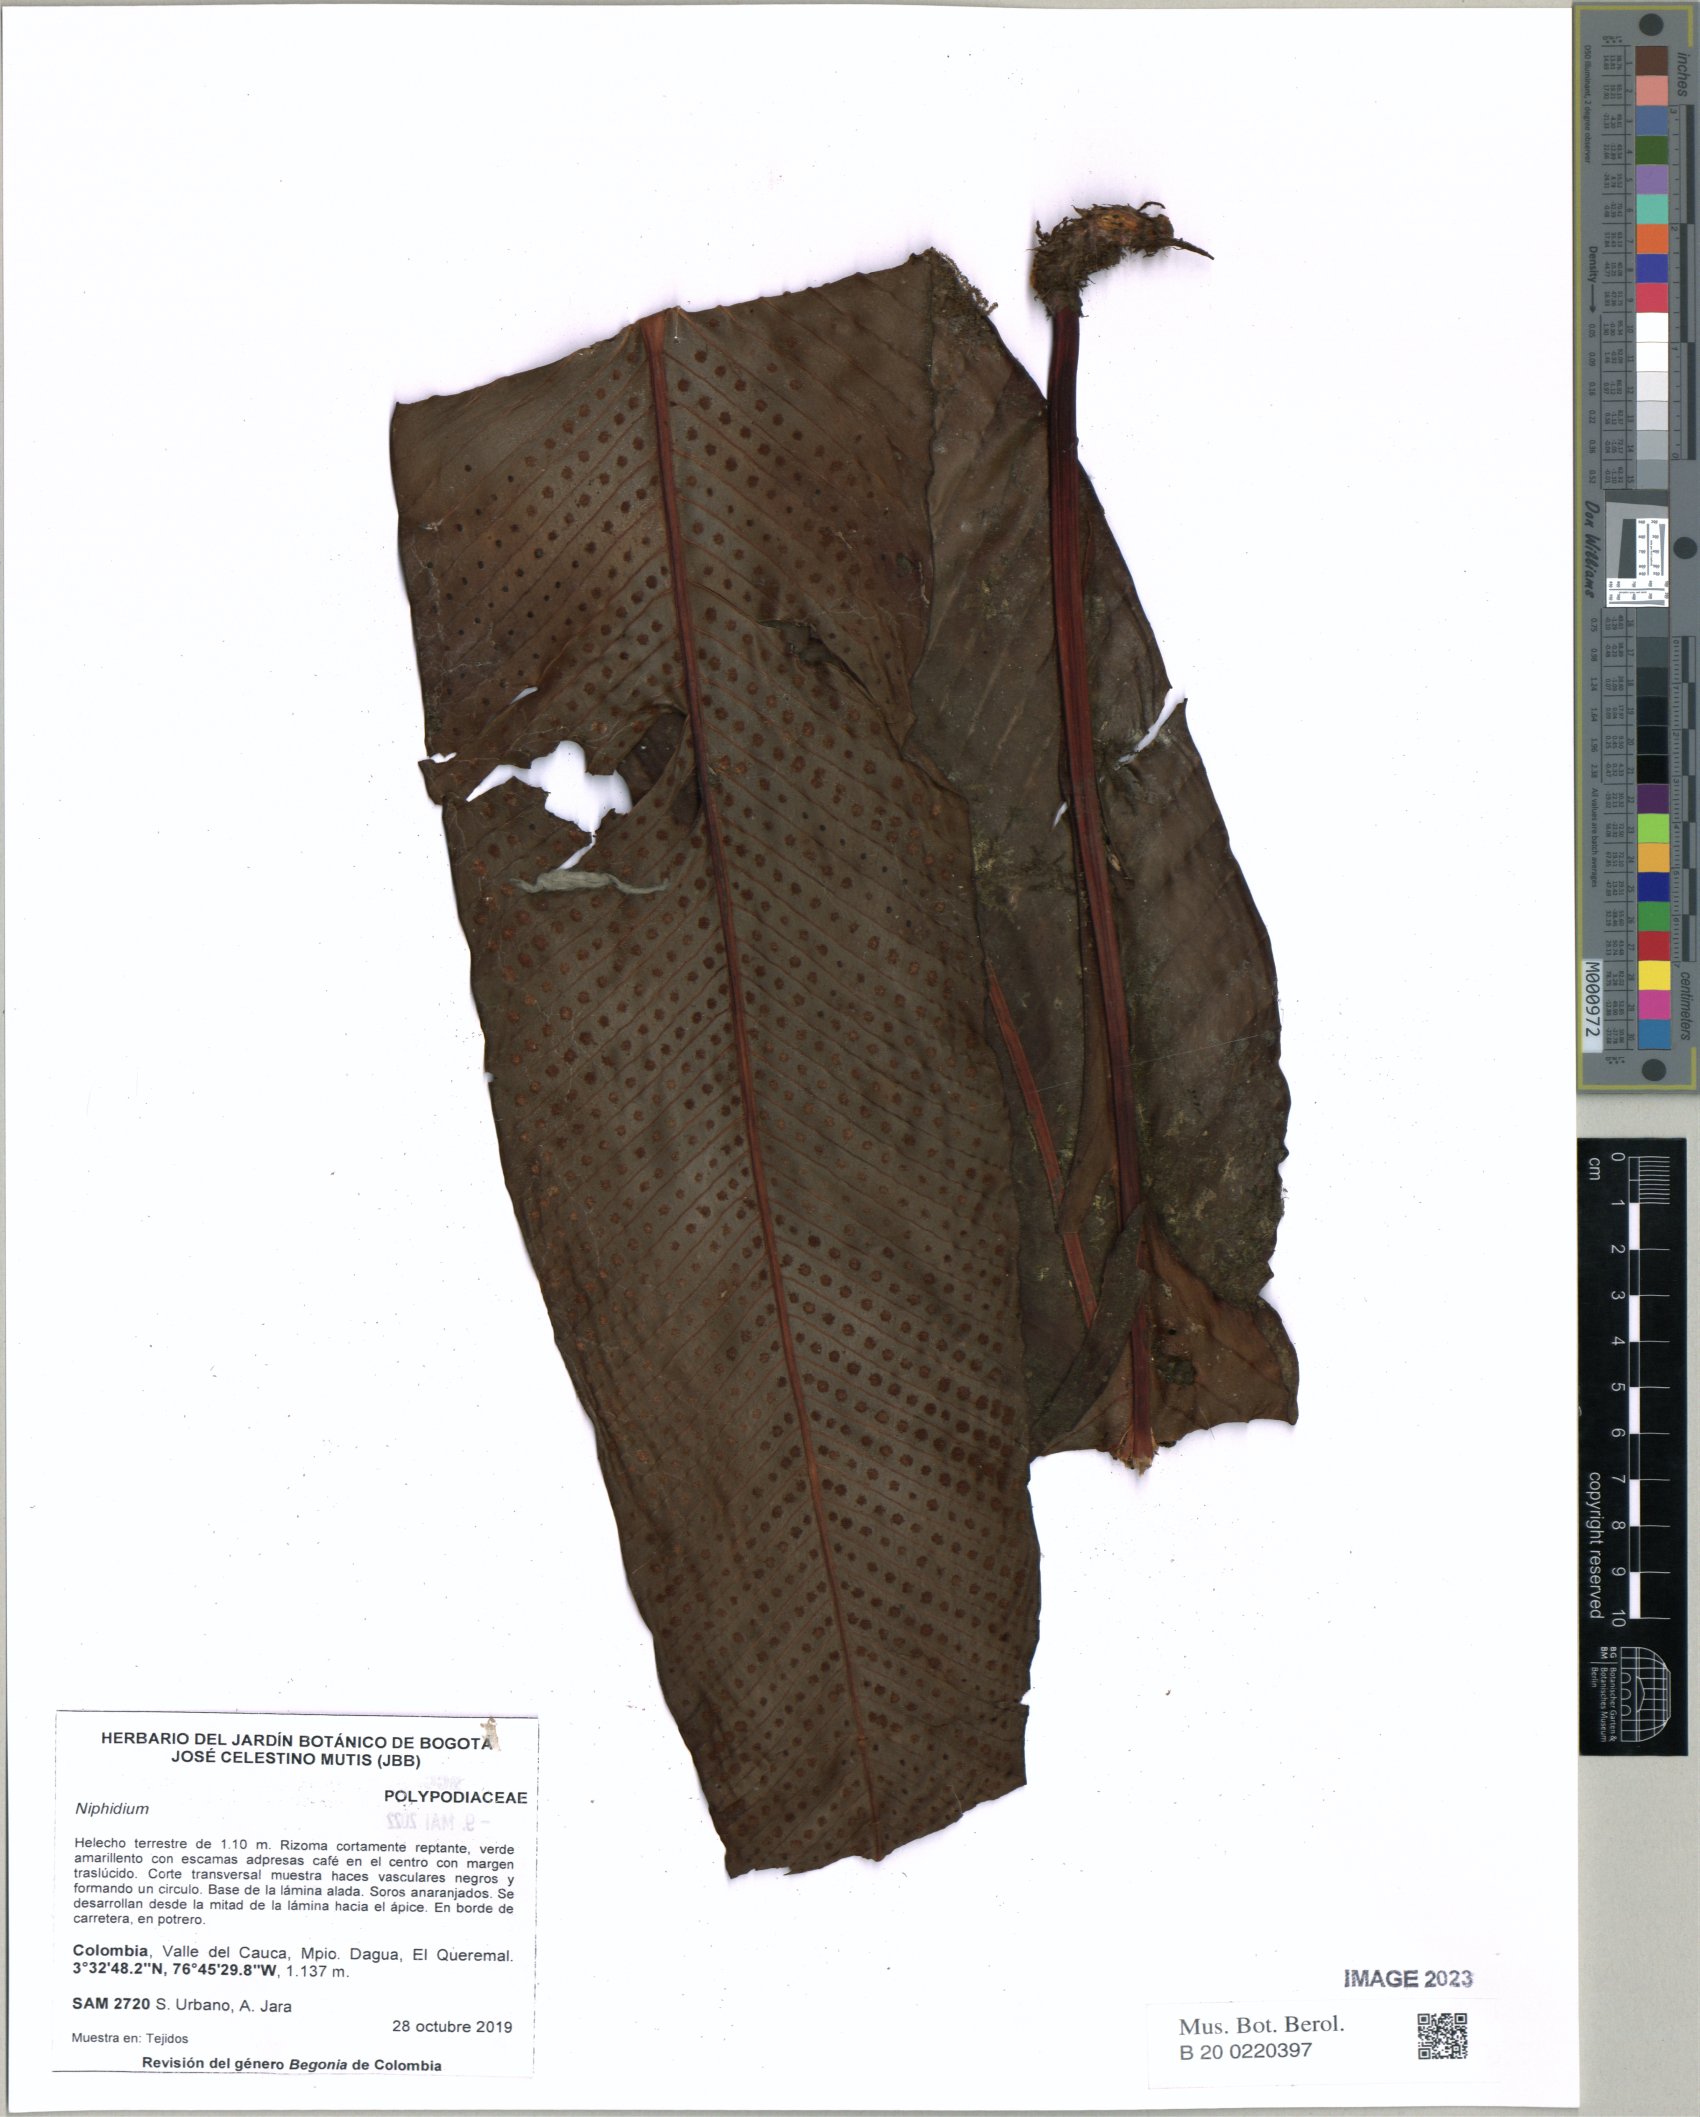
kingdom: Plantae
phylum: Tracheophyta
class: Polypodiopsida
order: Polypodiales
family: Polypodiaceae
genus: Niphidium
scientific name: Niphidium
